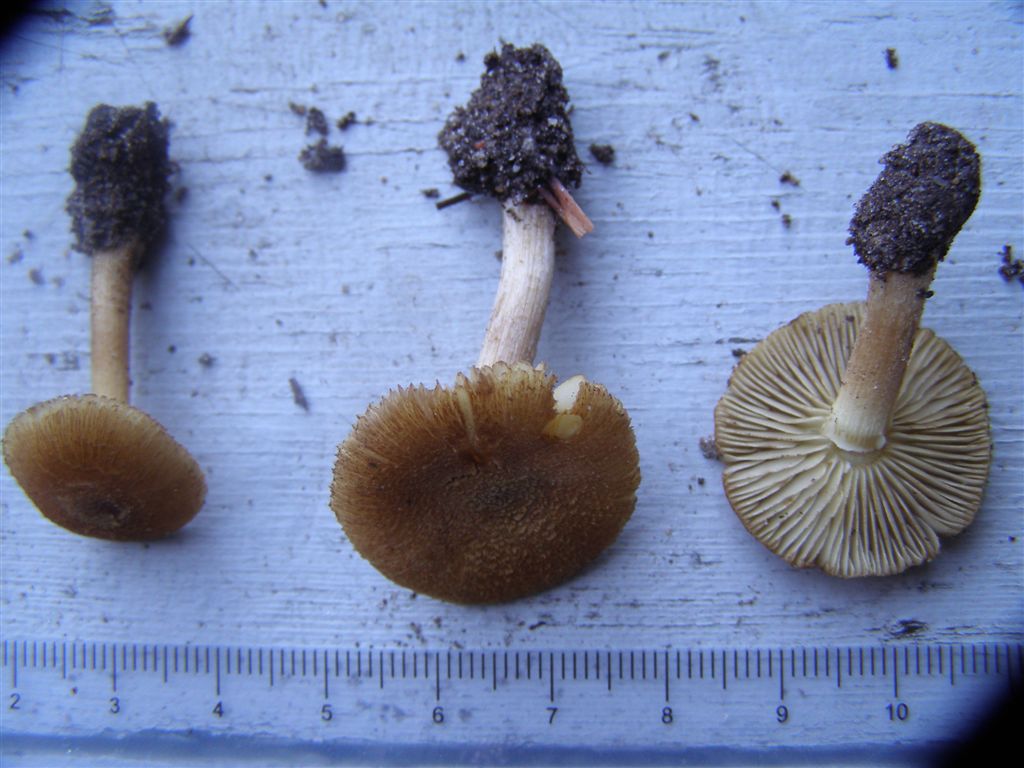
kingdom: Fungi
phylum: Basidiomycota
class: Agaricomycetes
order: Agaricales
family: Inocybaceae
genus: Inocybe
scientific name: Inocybe muricellata
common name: stribestokket trævlhat
